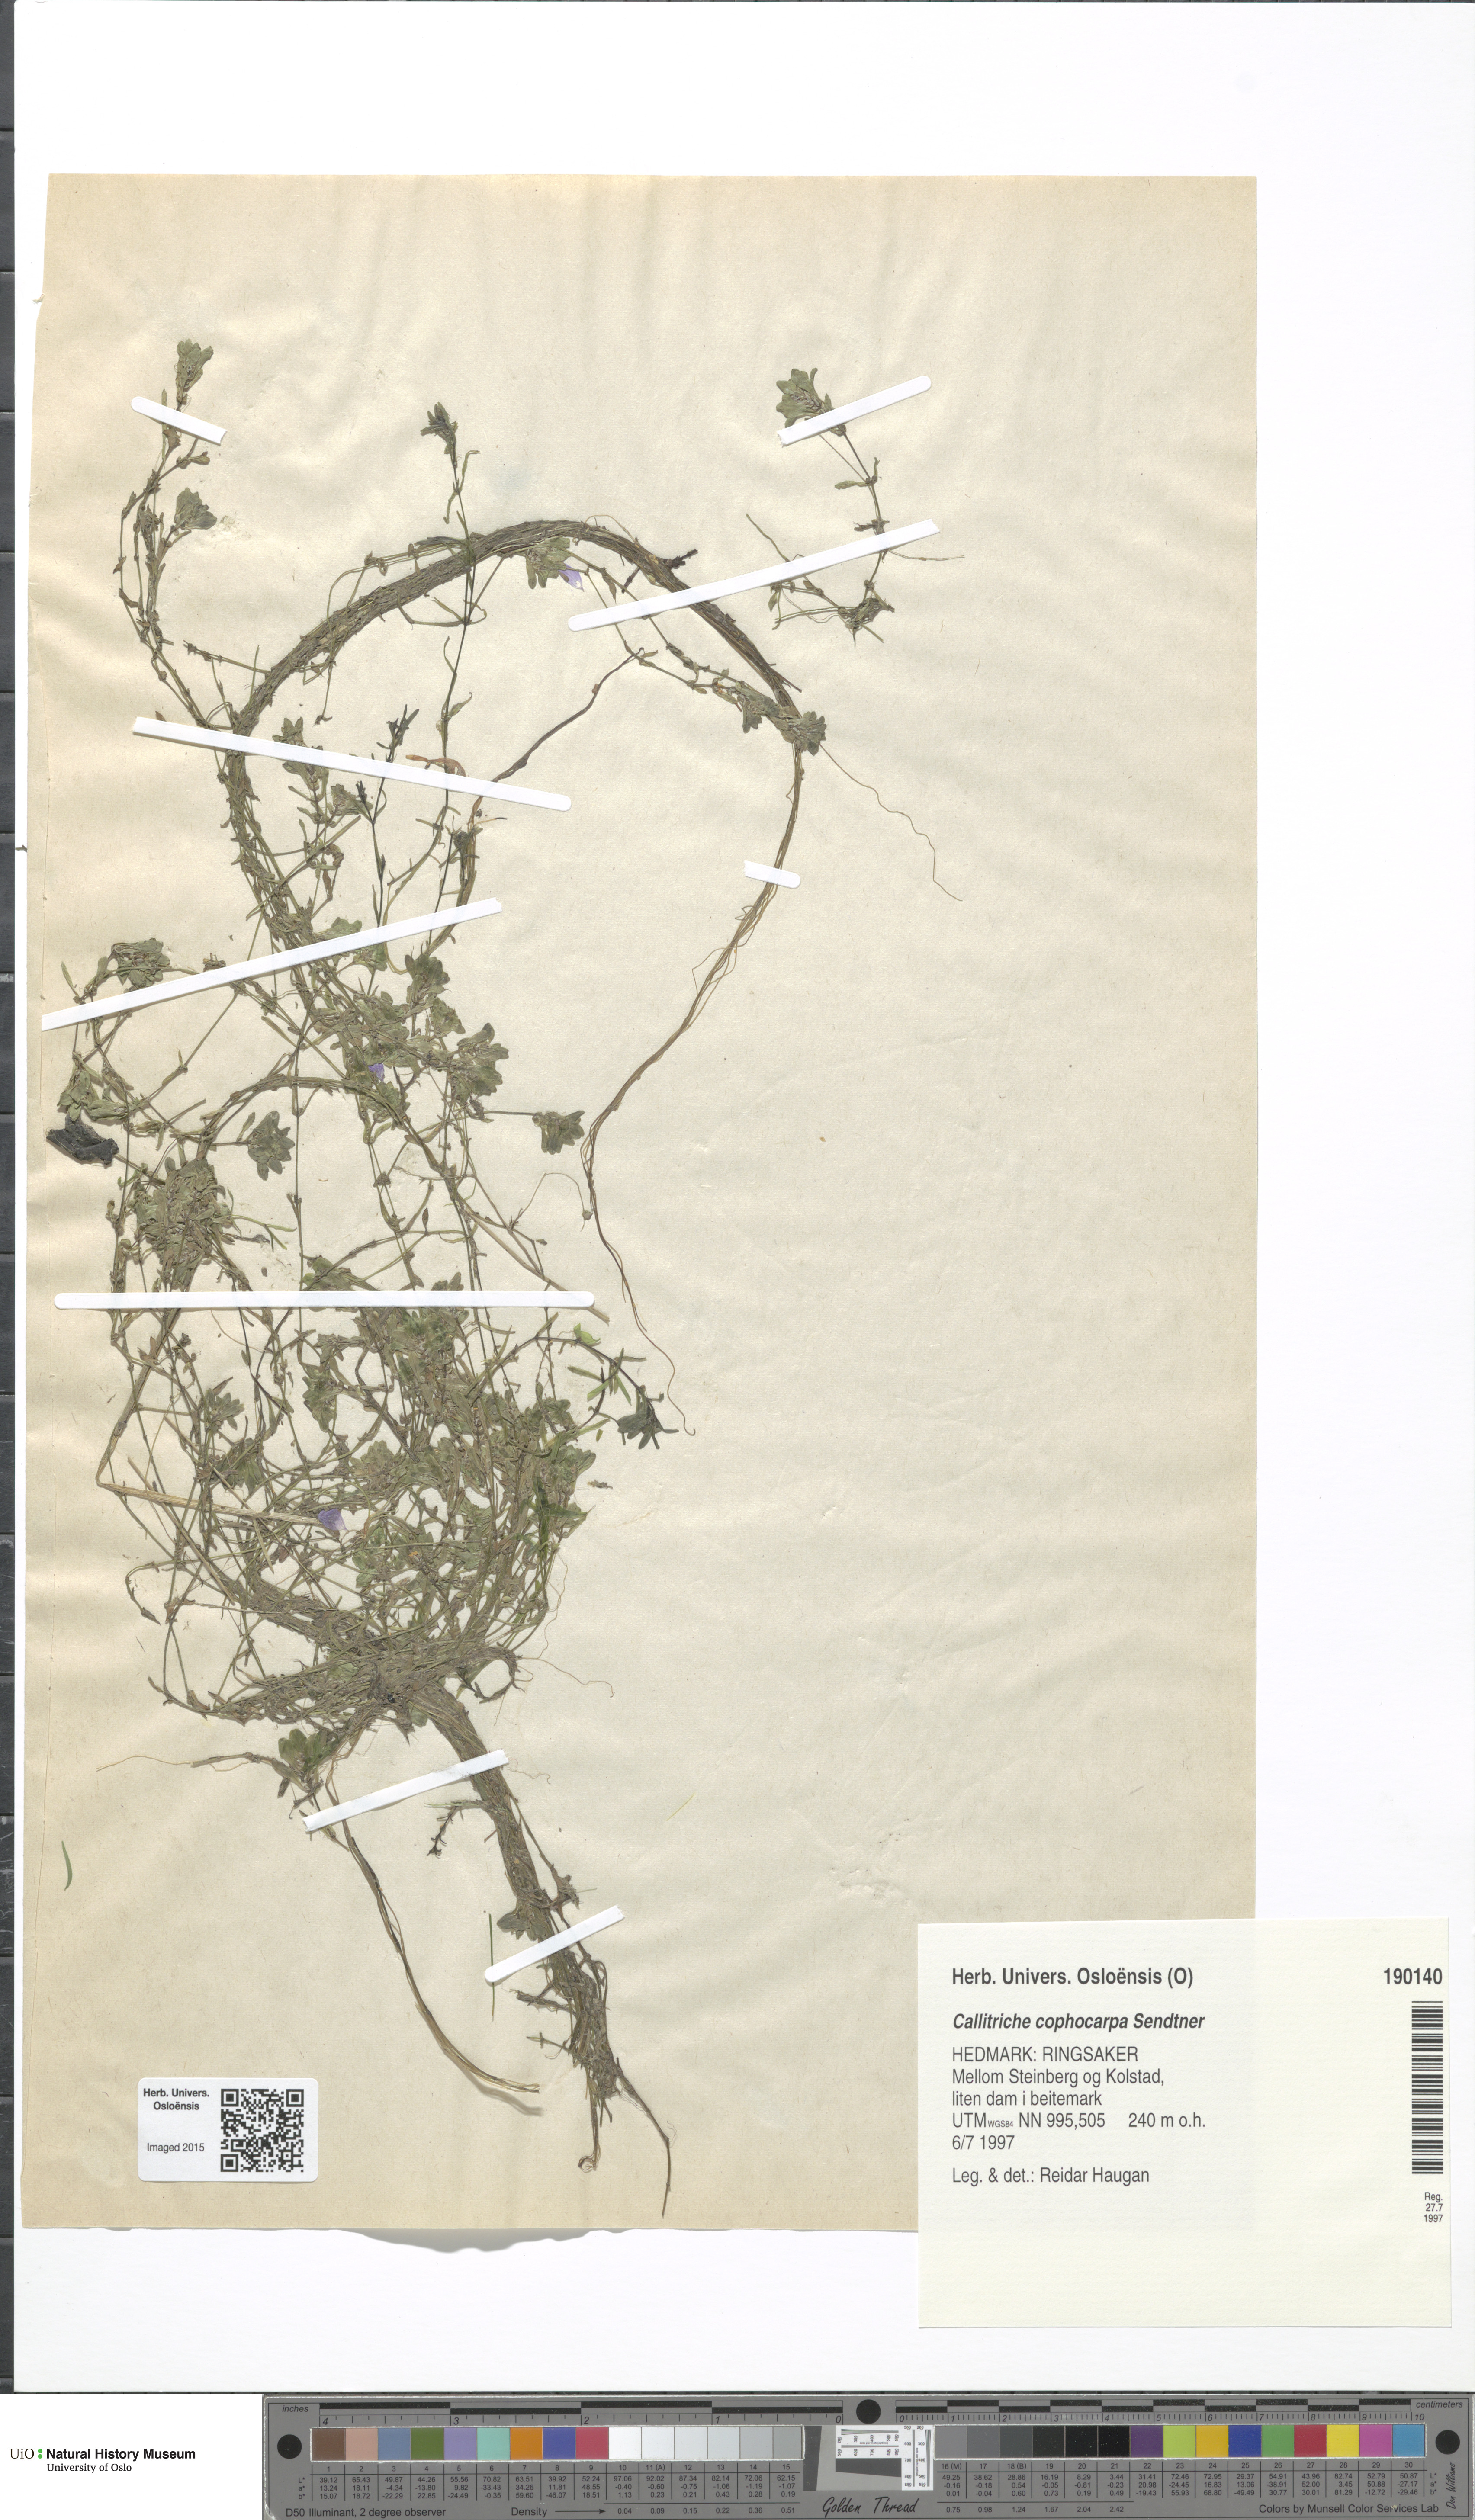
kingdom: Plantae
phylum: Tracheophyta
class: Magnoliopsida
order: Lamiales
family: Plantaginaceae
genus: Callitriche
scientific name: Callitriche cophocarpa
